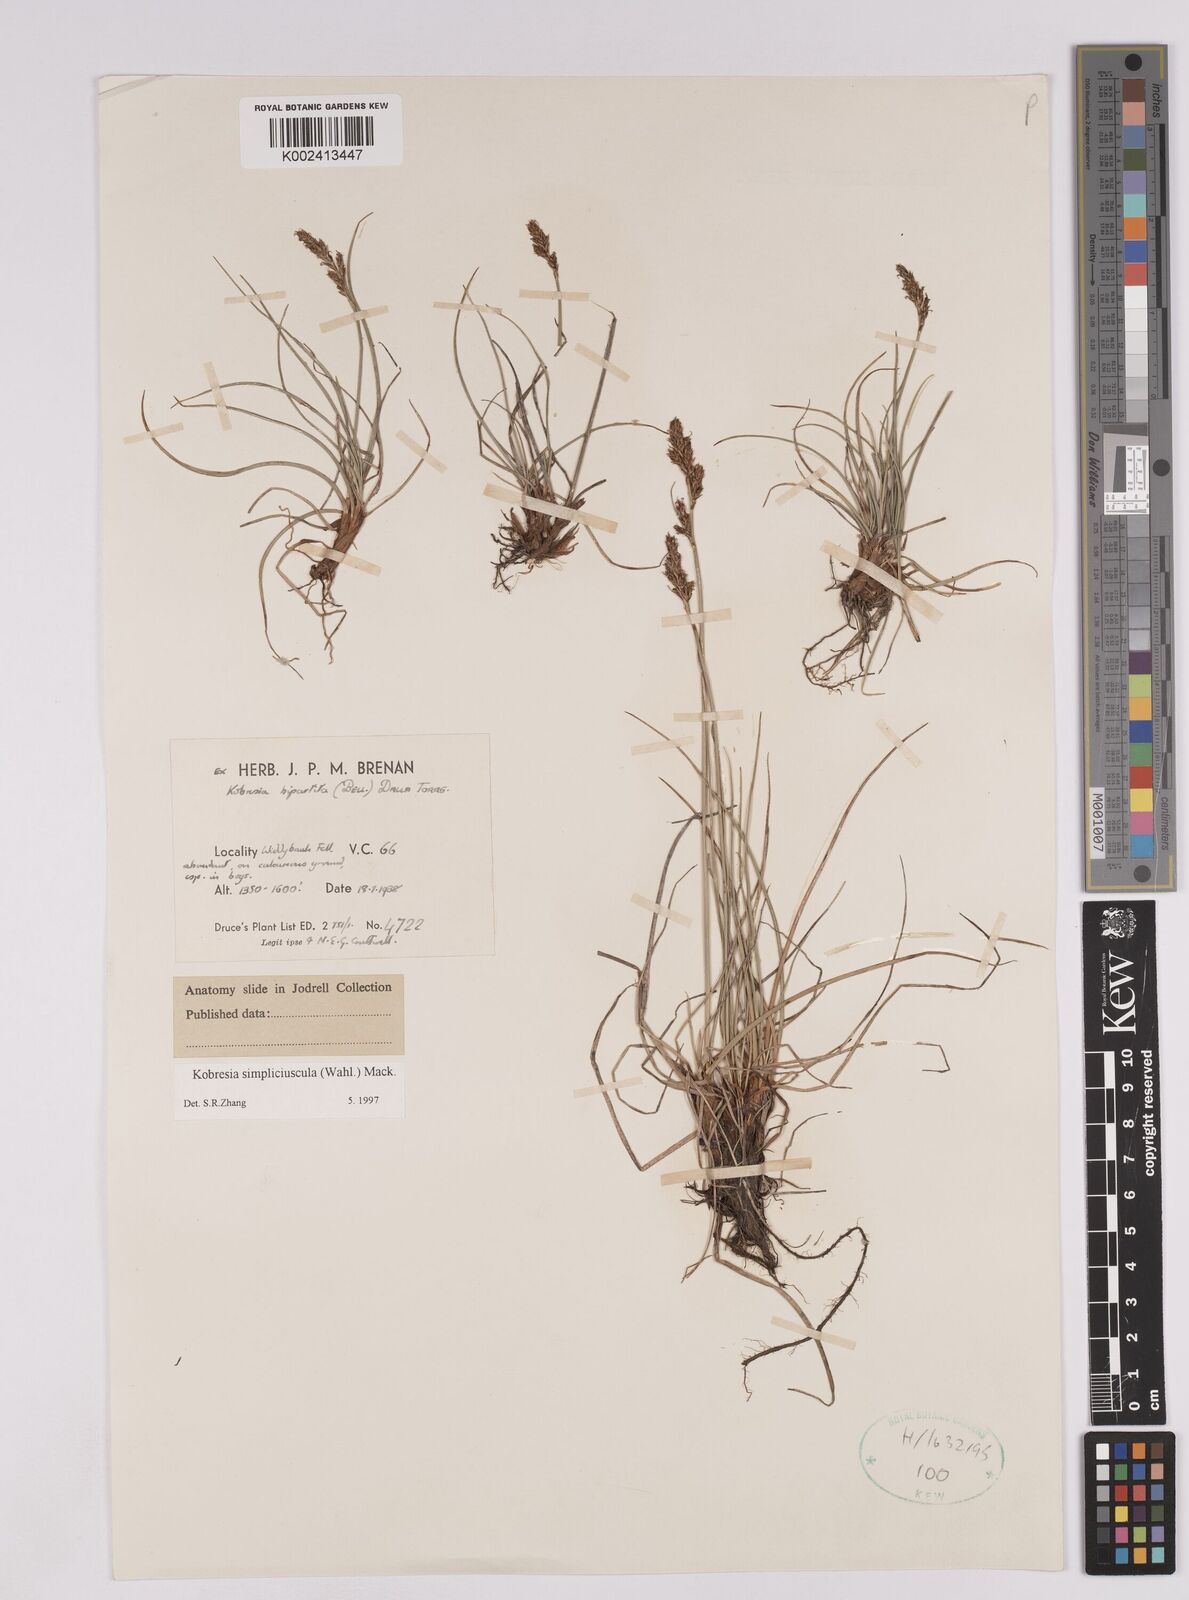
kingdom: Plantae
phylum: Tracheophyta
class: Liliopsida
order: Poales
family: Cyperaceae
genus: Carex
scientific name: Carex simpliciuscula
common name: Simple bog sedge
